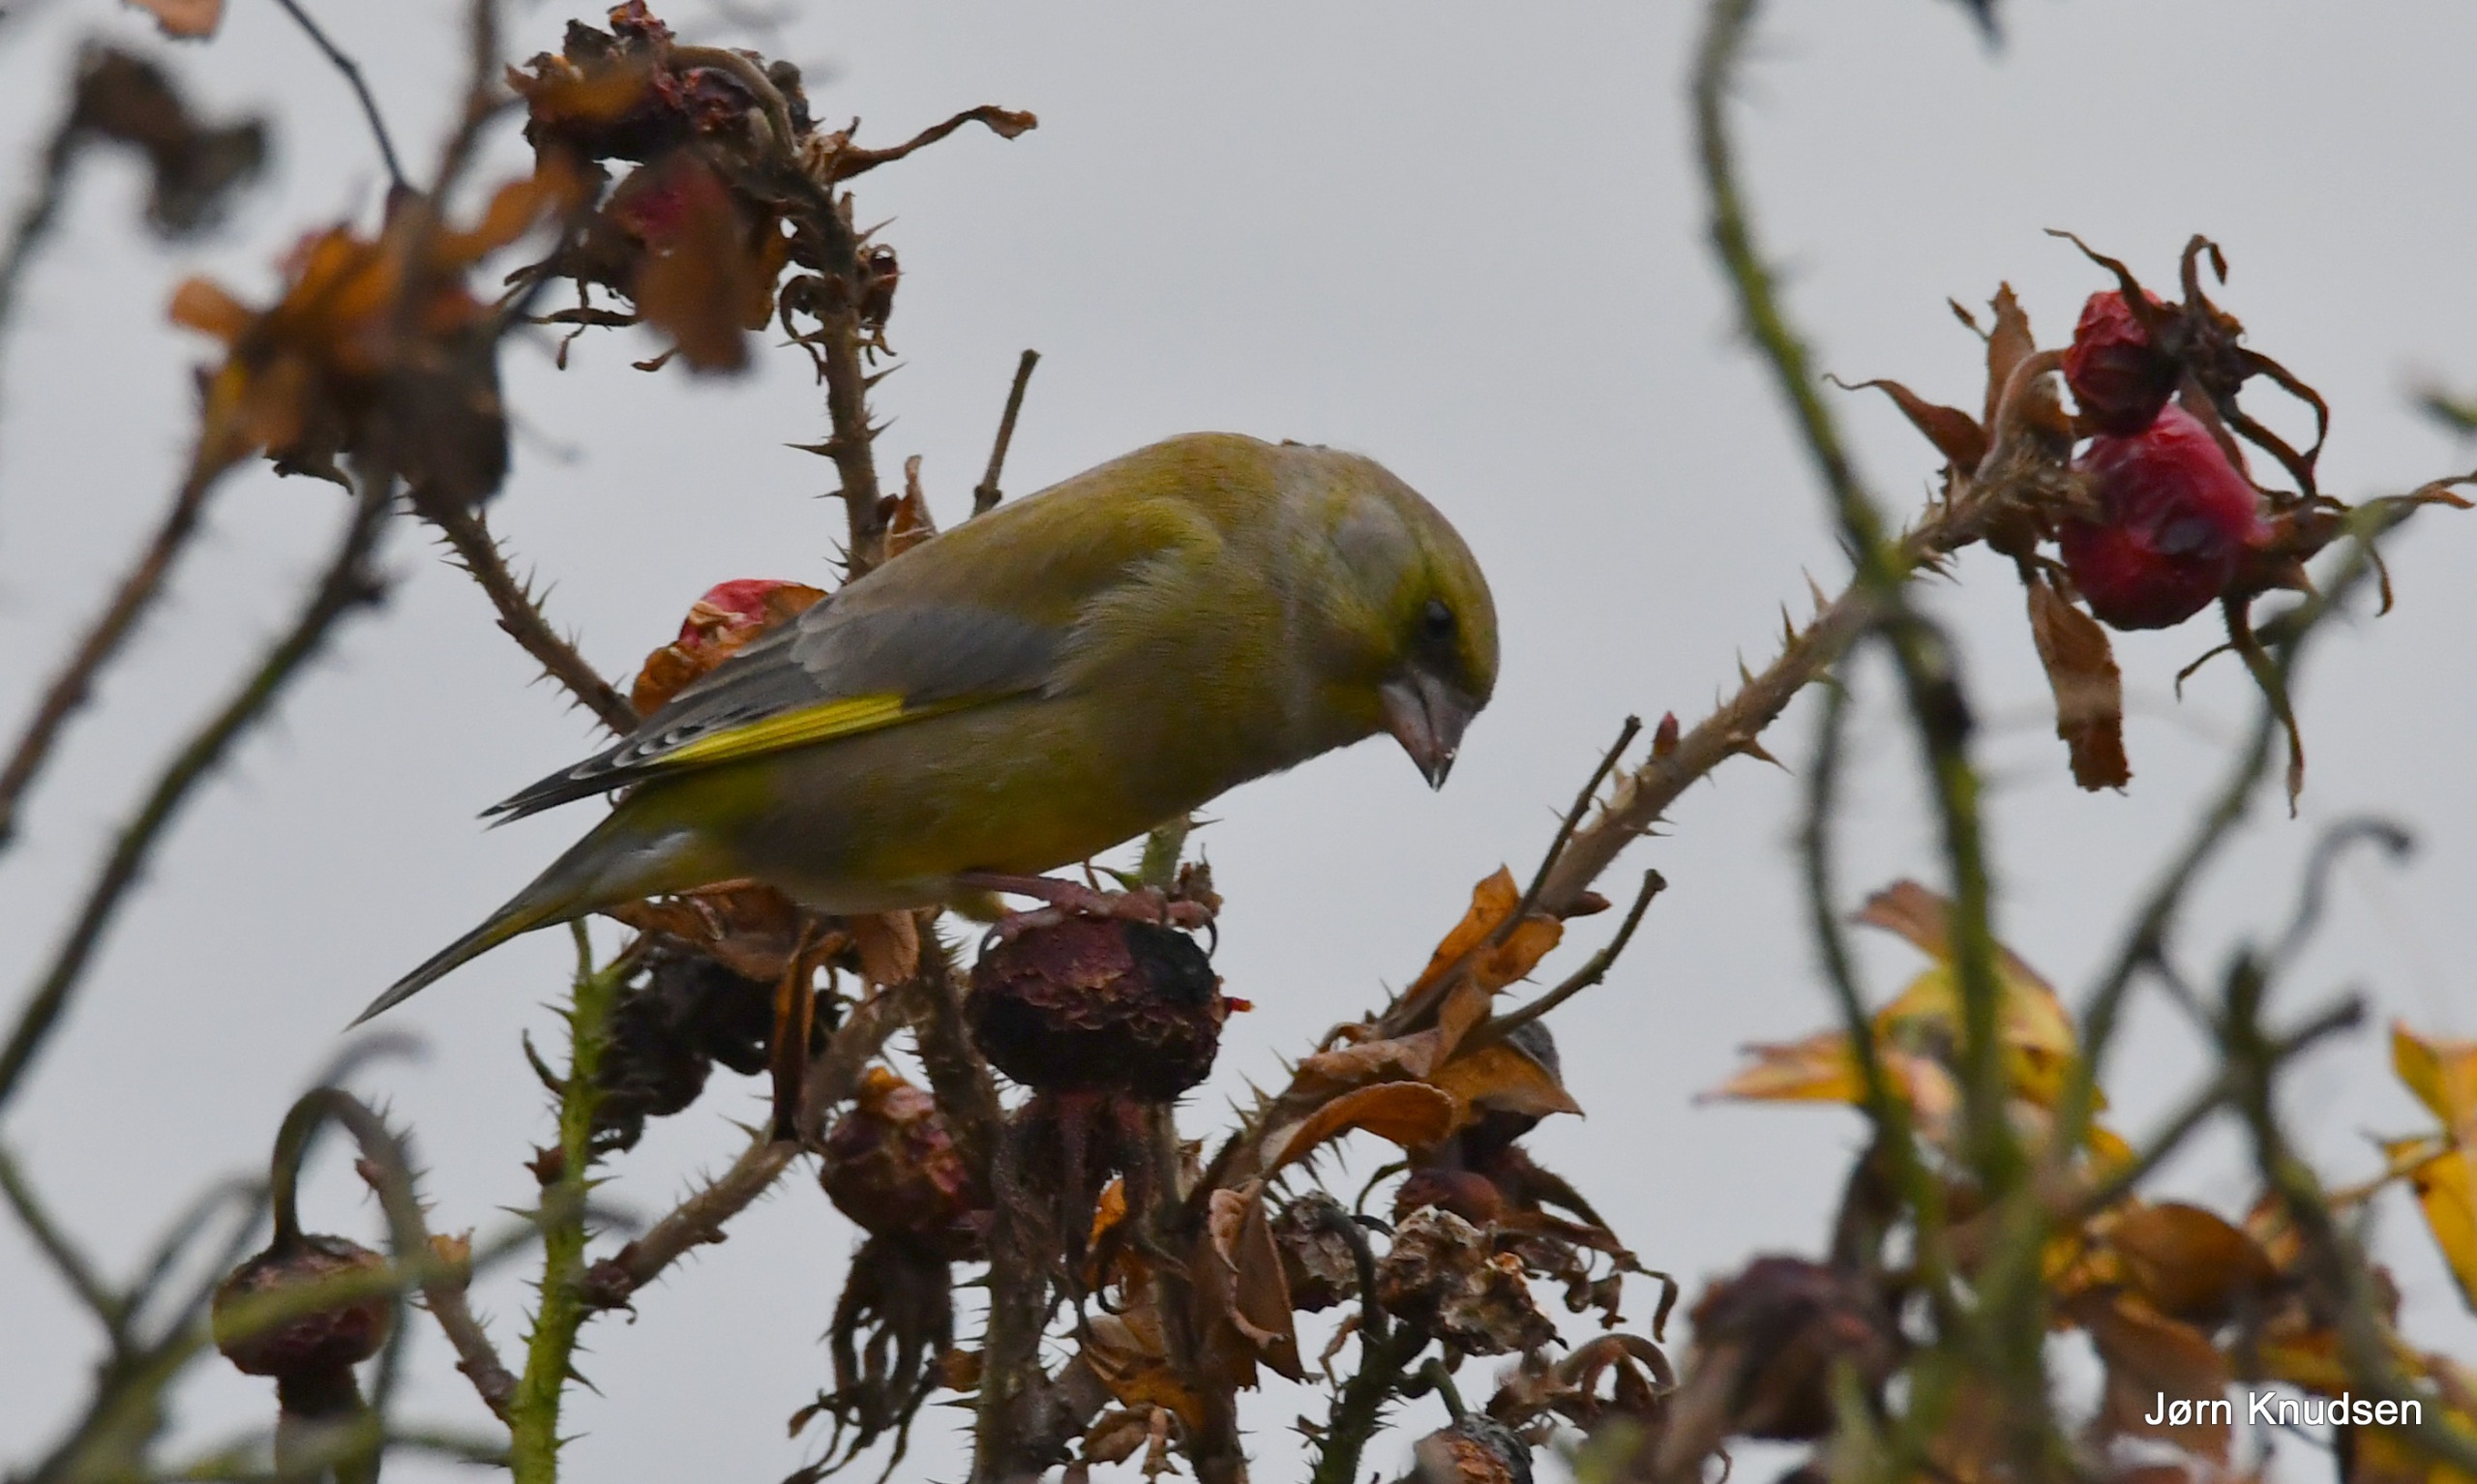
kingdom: Plantae
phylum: Tracheophyta
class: Liliopsida
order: Poales
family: Poaceae
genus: Chloris
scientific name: Chloris chloris
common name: Grønirisk
